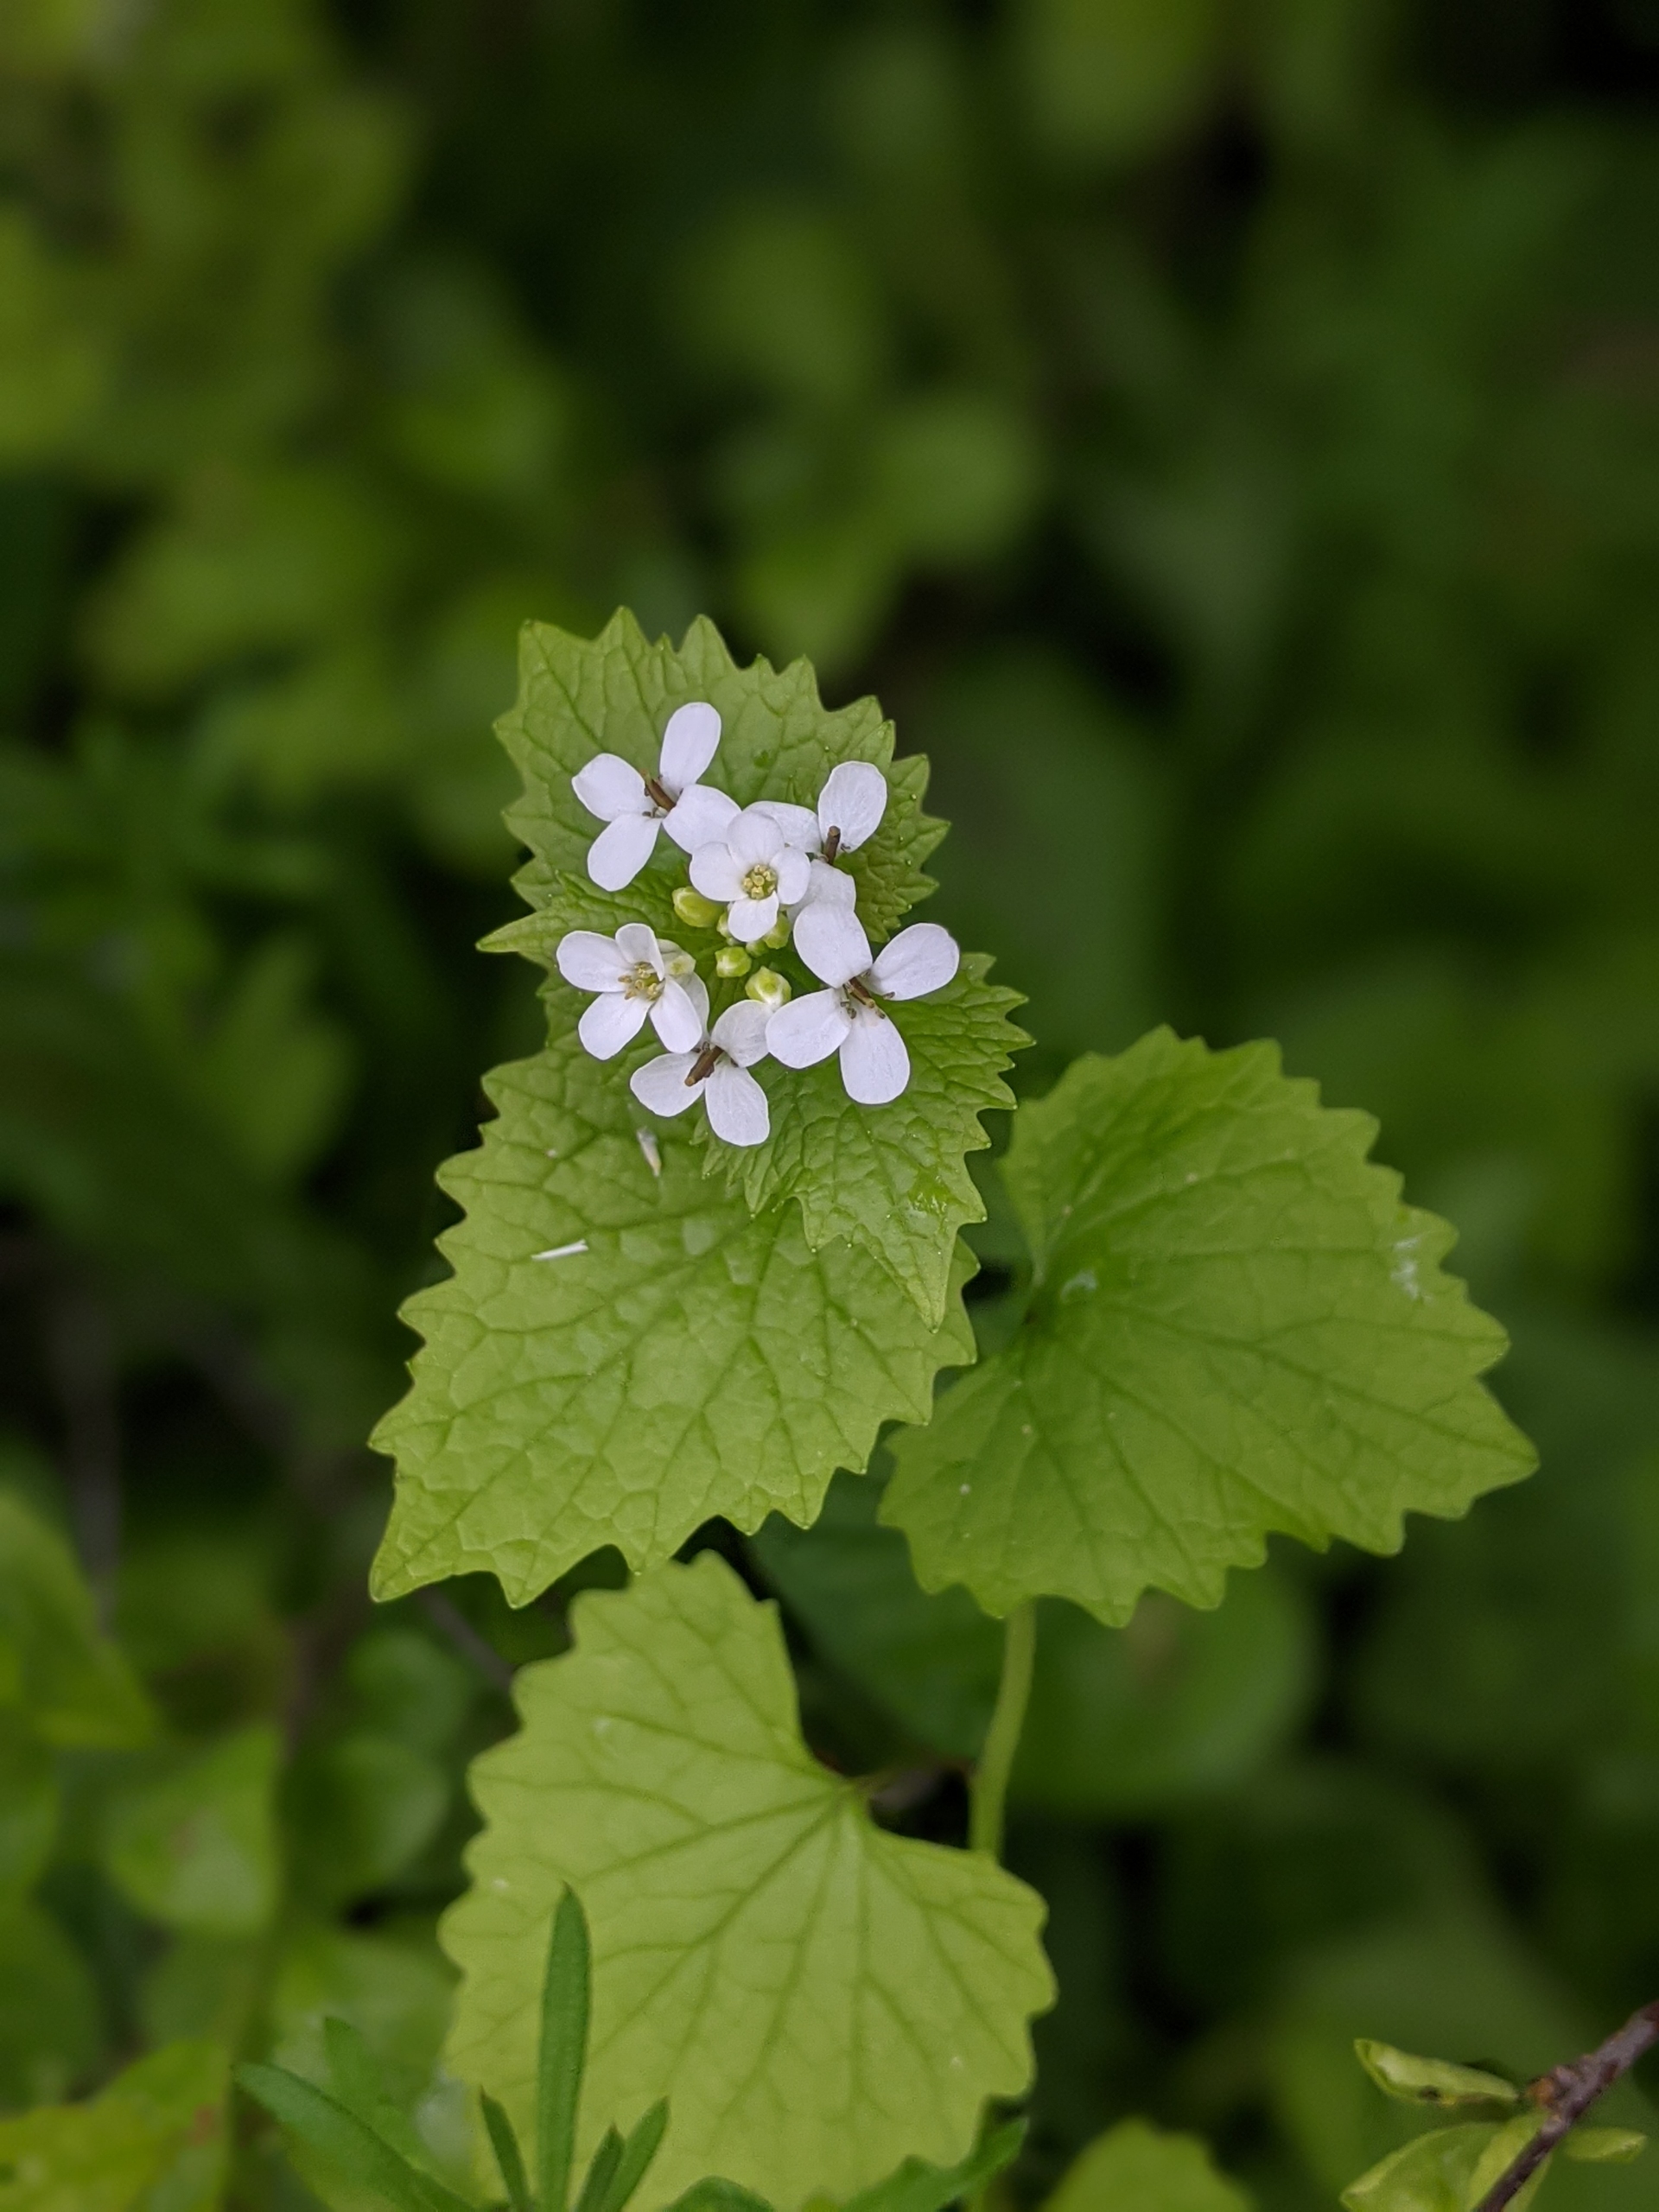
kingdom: Plantae
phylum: Tracheophyta
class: Magnoliopsida
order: Brassicales
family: Brassicaceae
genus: Alliaria
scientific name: Alliaria petiolata
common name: Løgkarse
